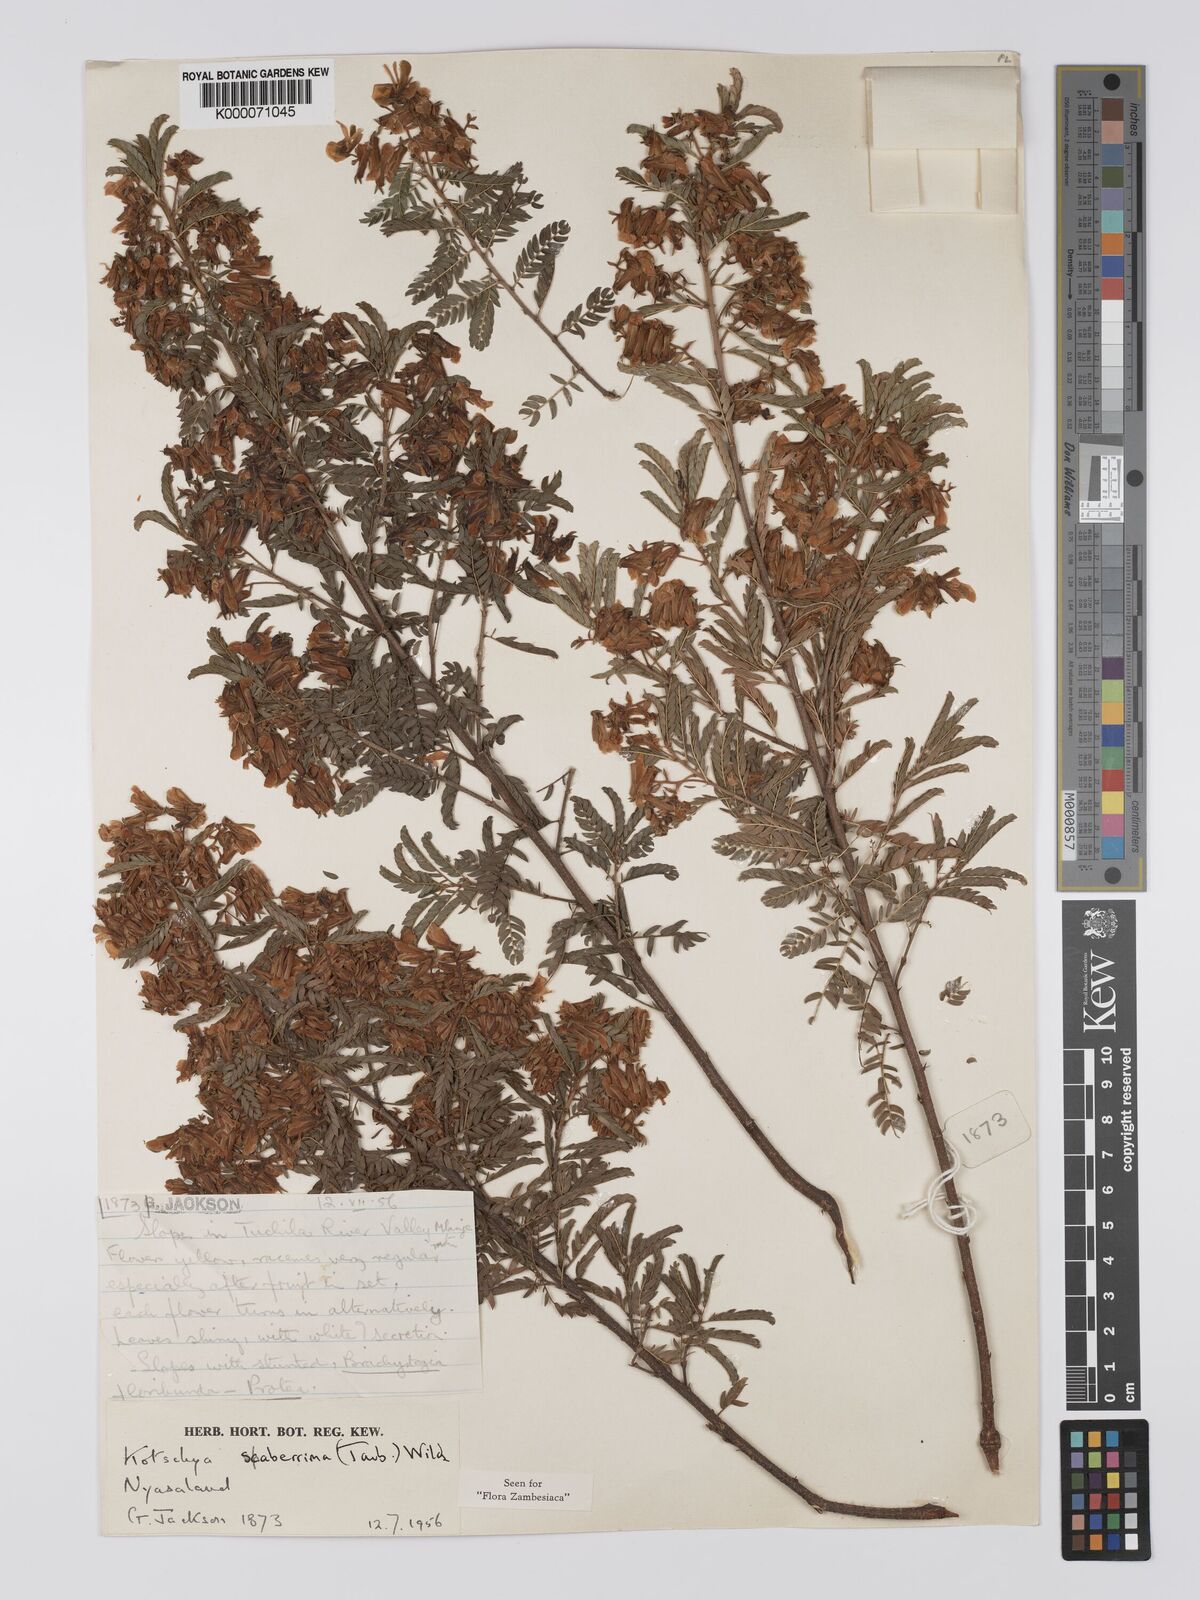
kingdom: Plantae
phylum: Tracheophyta
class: Magnoliopsida
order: Fabales
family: Fabaceae
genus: Kotschya
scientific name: Kotschya scaberrima
